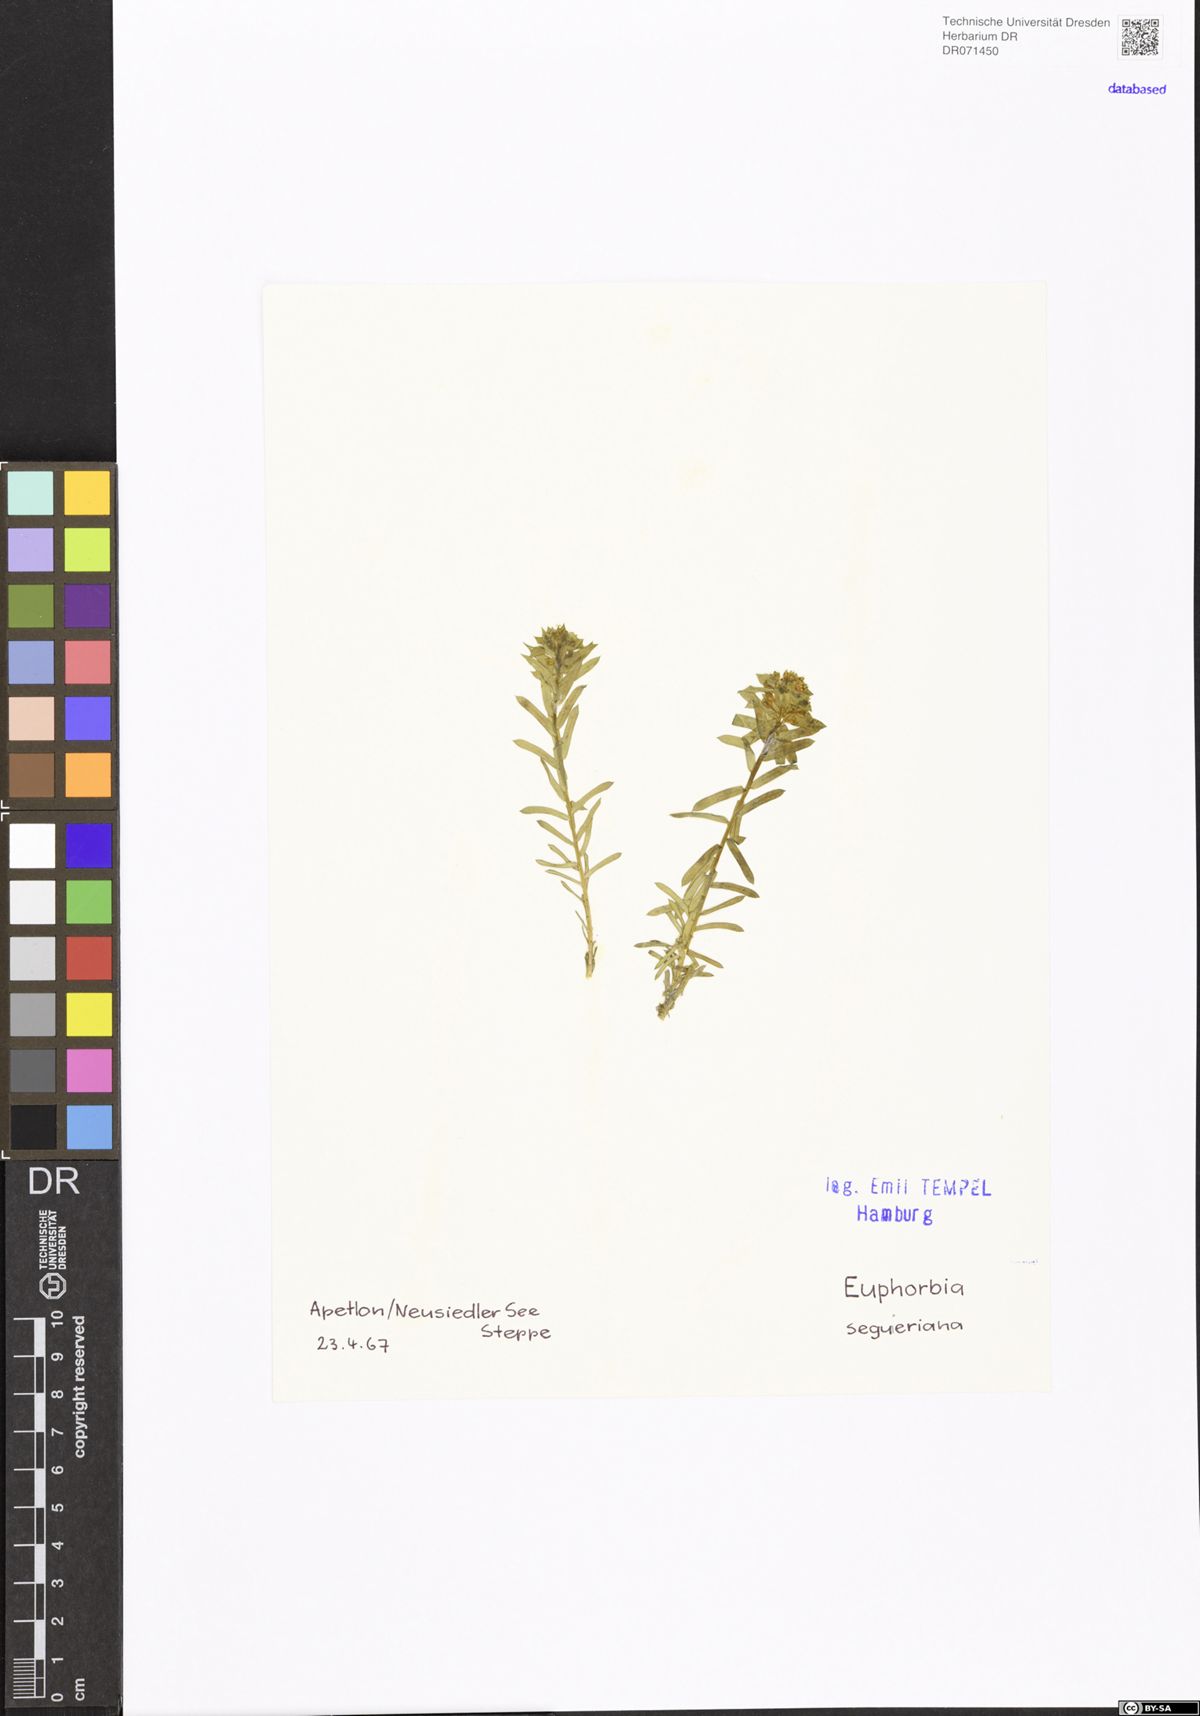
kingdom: Plantae
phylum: Tracheophyta
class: Magnoliopsida
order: Malpighiales
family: Euphorbiaceae
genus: Euphorbia
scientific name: Euphorbia seguieriana
